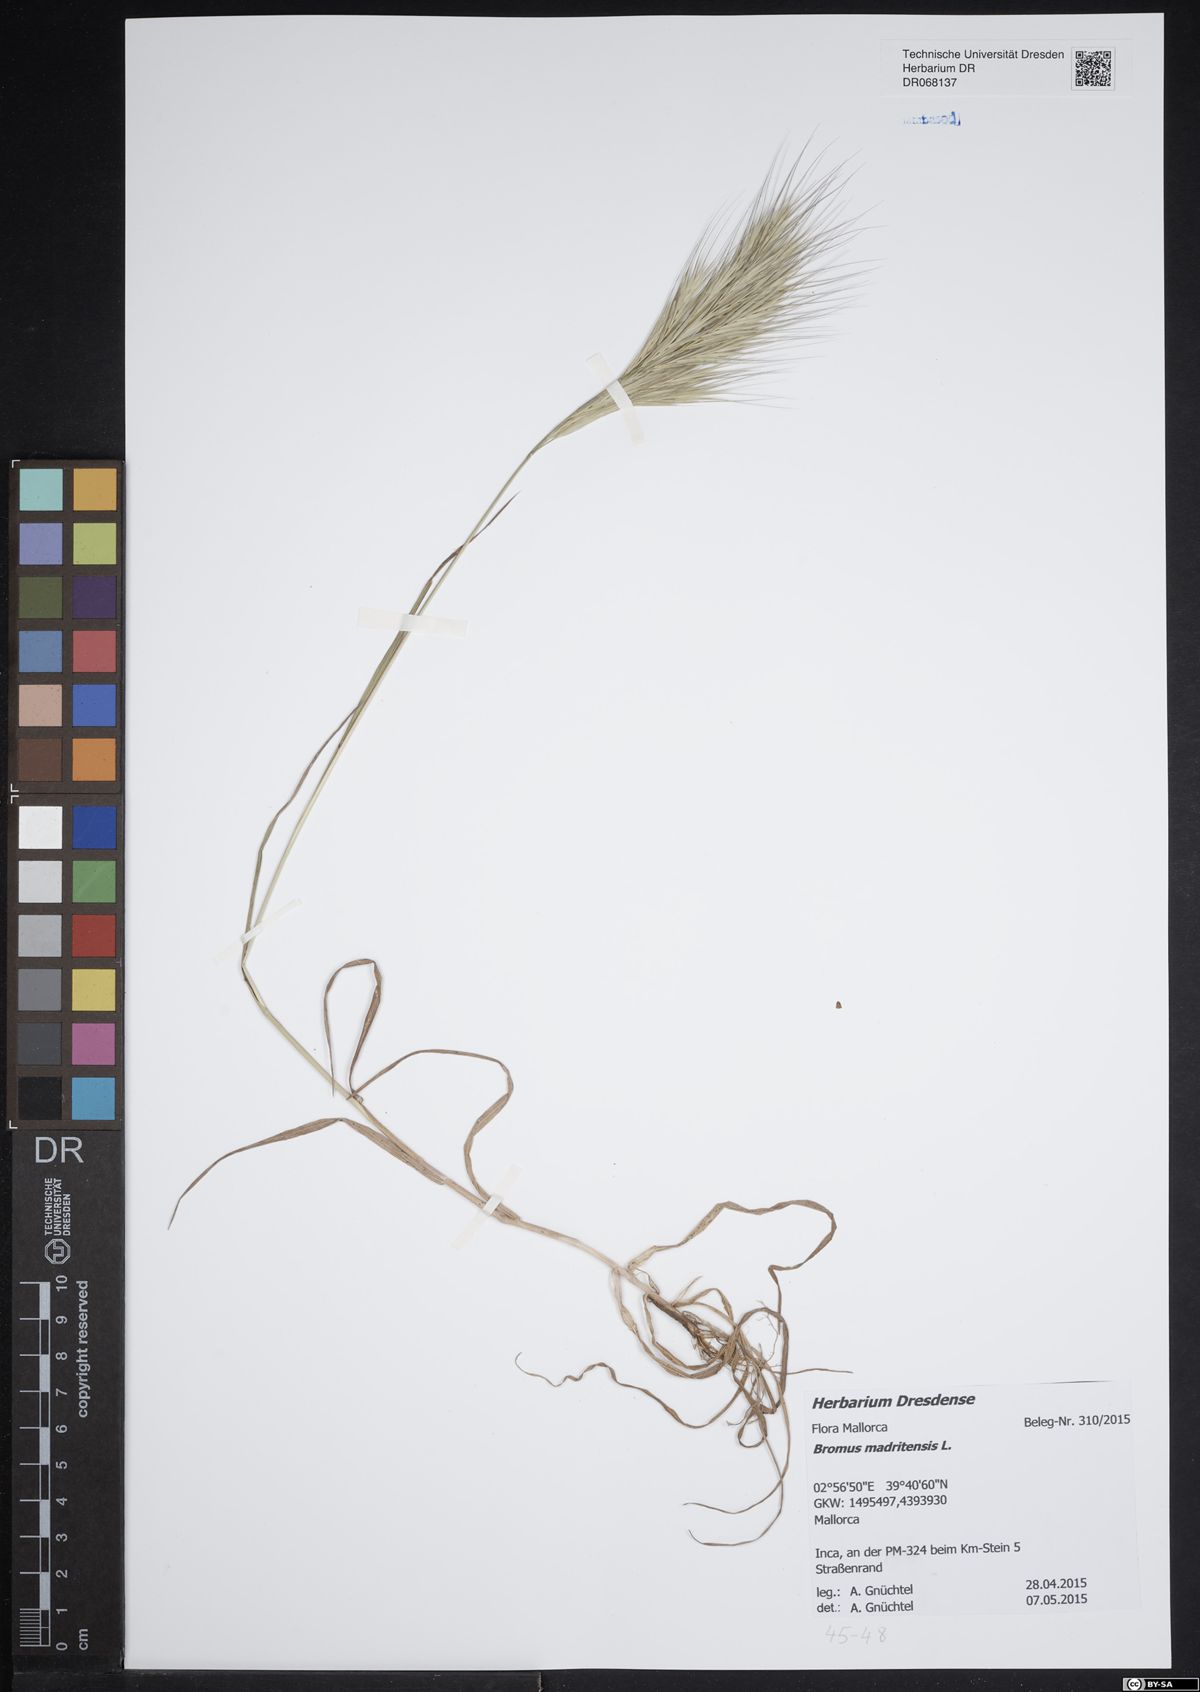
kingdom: Plantae
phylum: Tracheophyta
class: Liliopsida
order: Poales
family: Poaceae
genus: Bromus
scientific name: Bromus madritensis
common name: Compact brome
